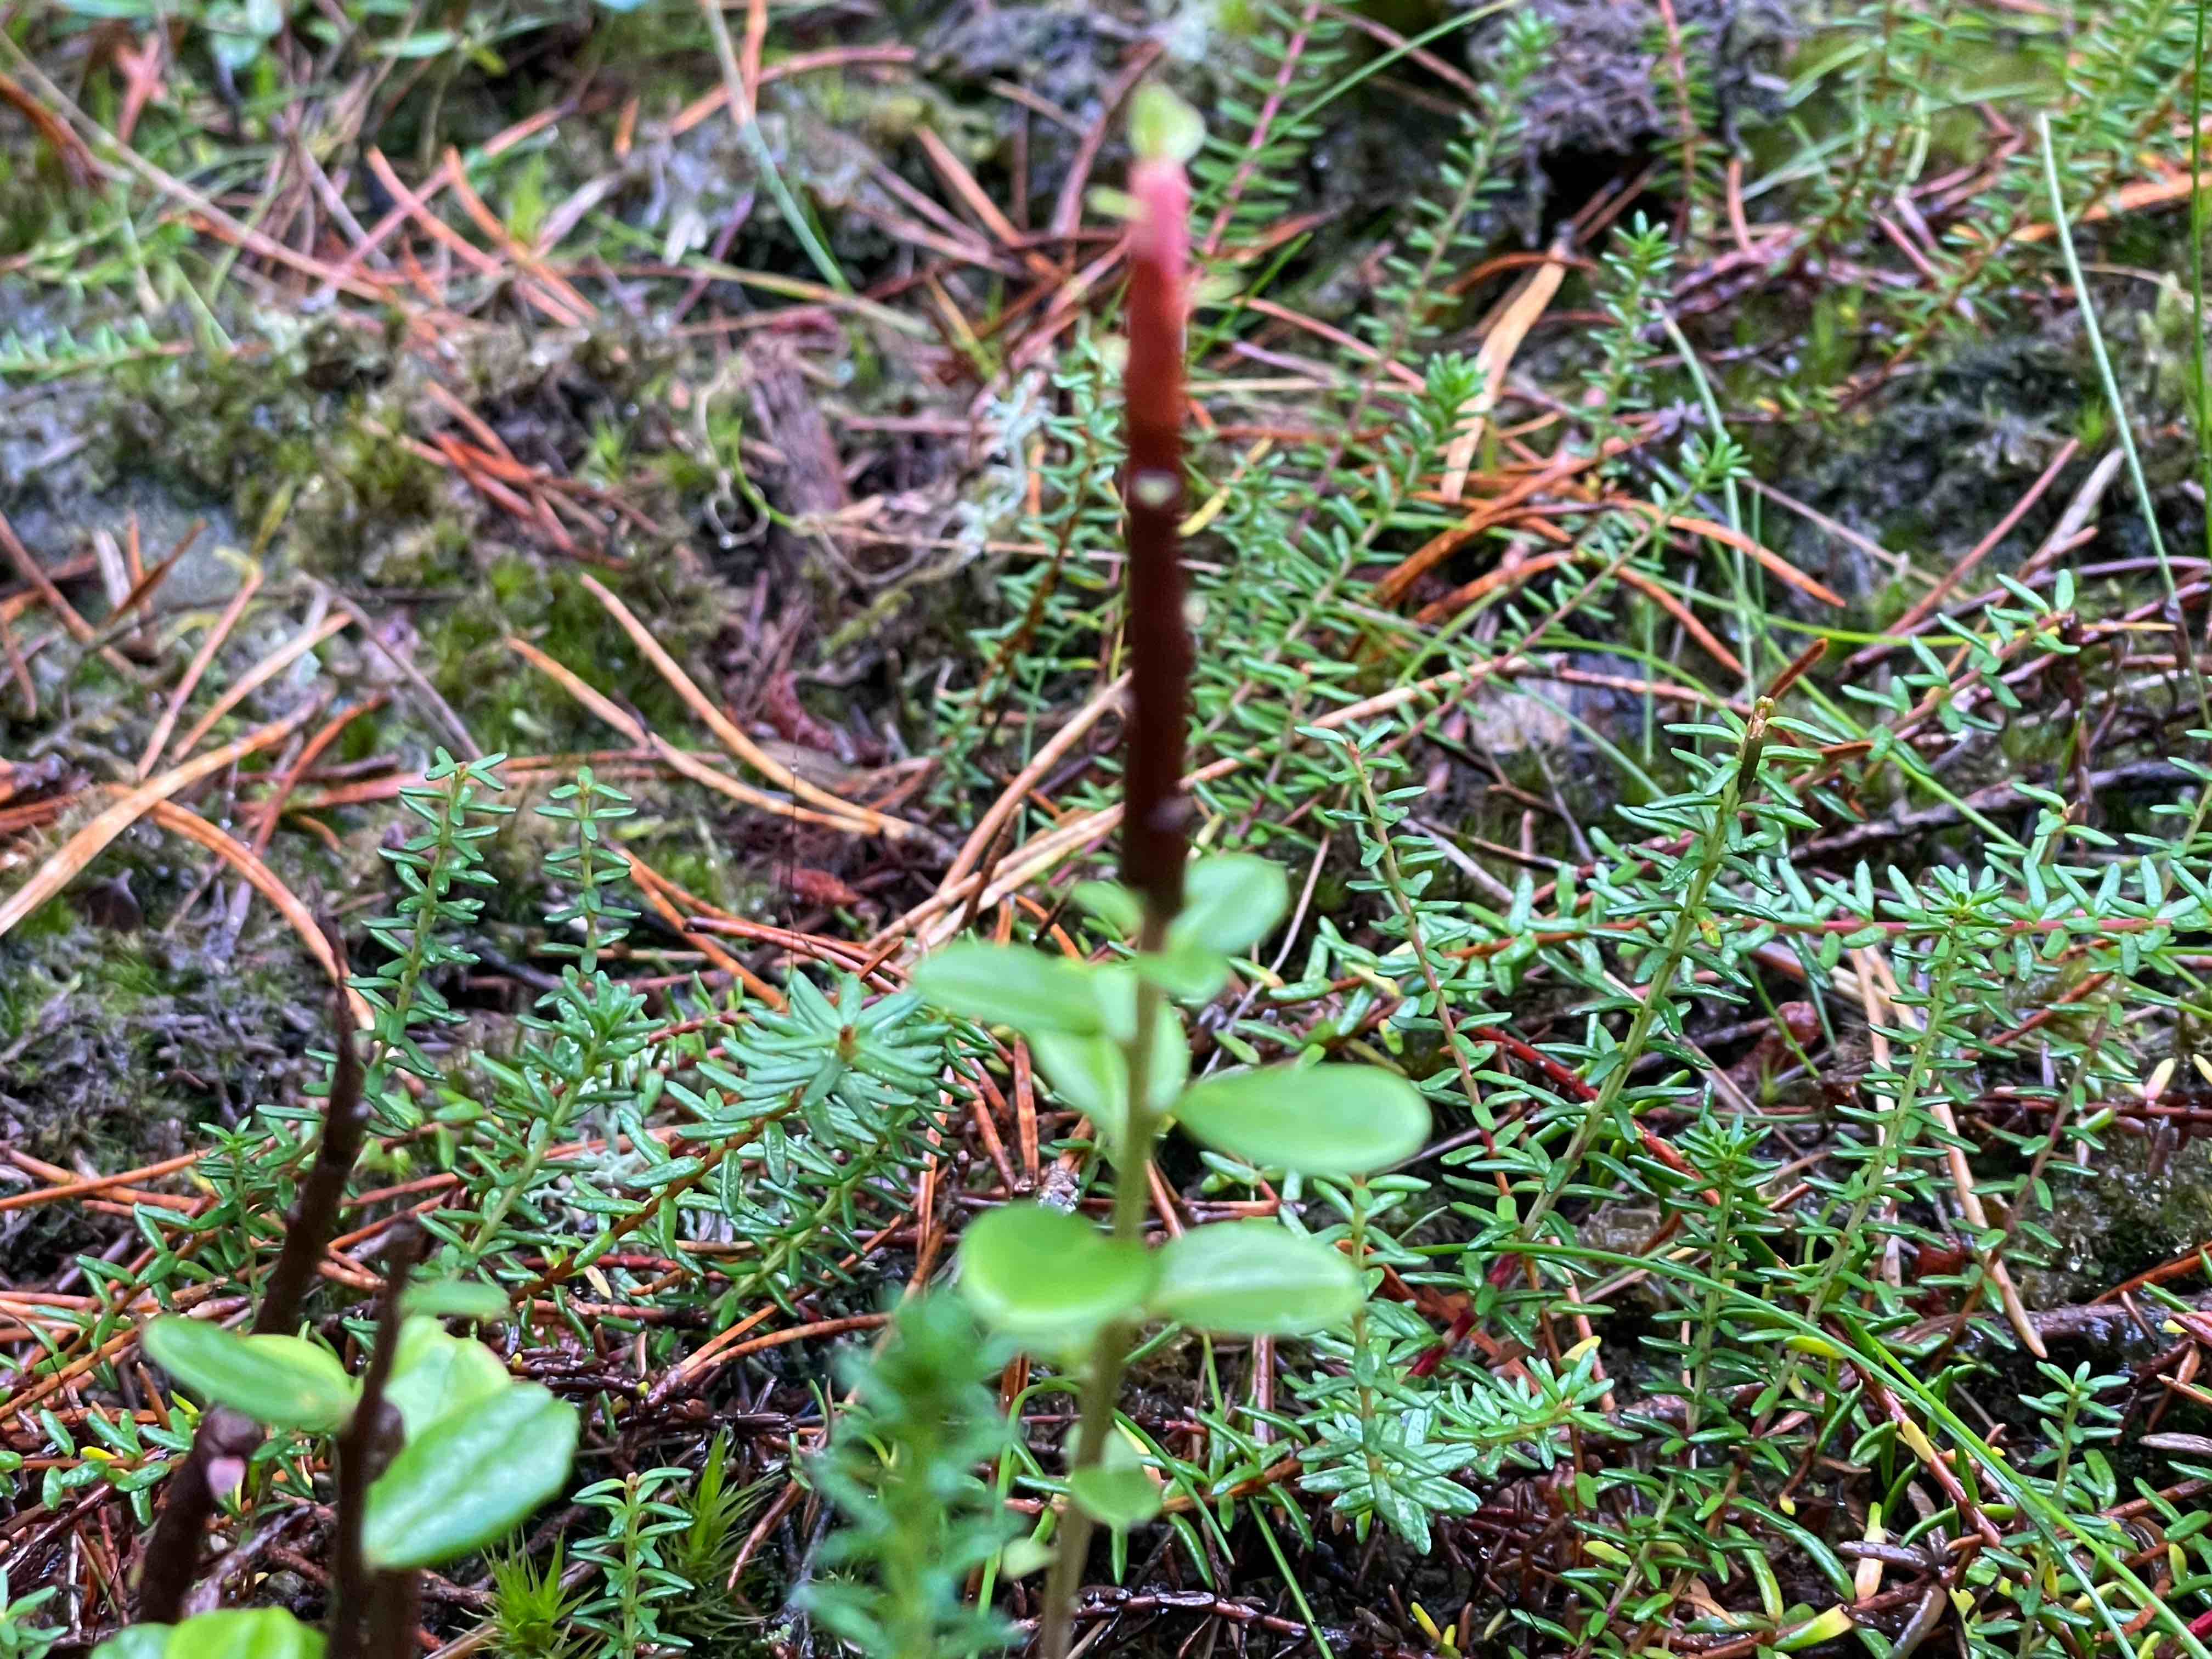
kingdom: Fungi
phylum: Basidiomycota
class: Pucciniomycetes
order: Pucciniales
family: Pucciniastraceae
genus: Calyptospora
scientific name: Calyptospora columnaris
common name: Huckleberry broom rust fungus
